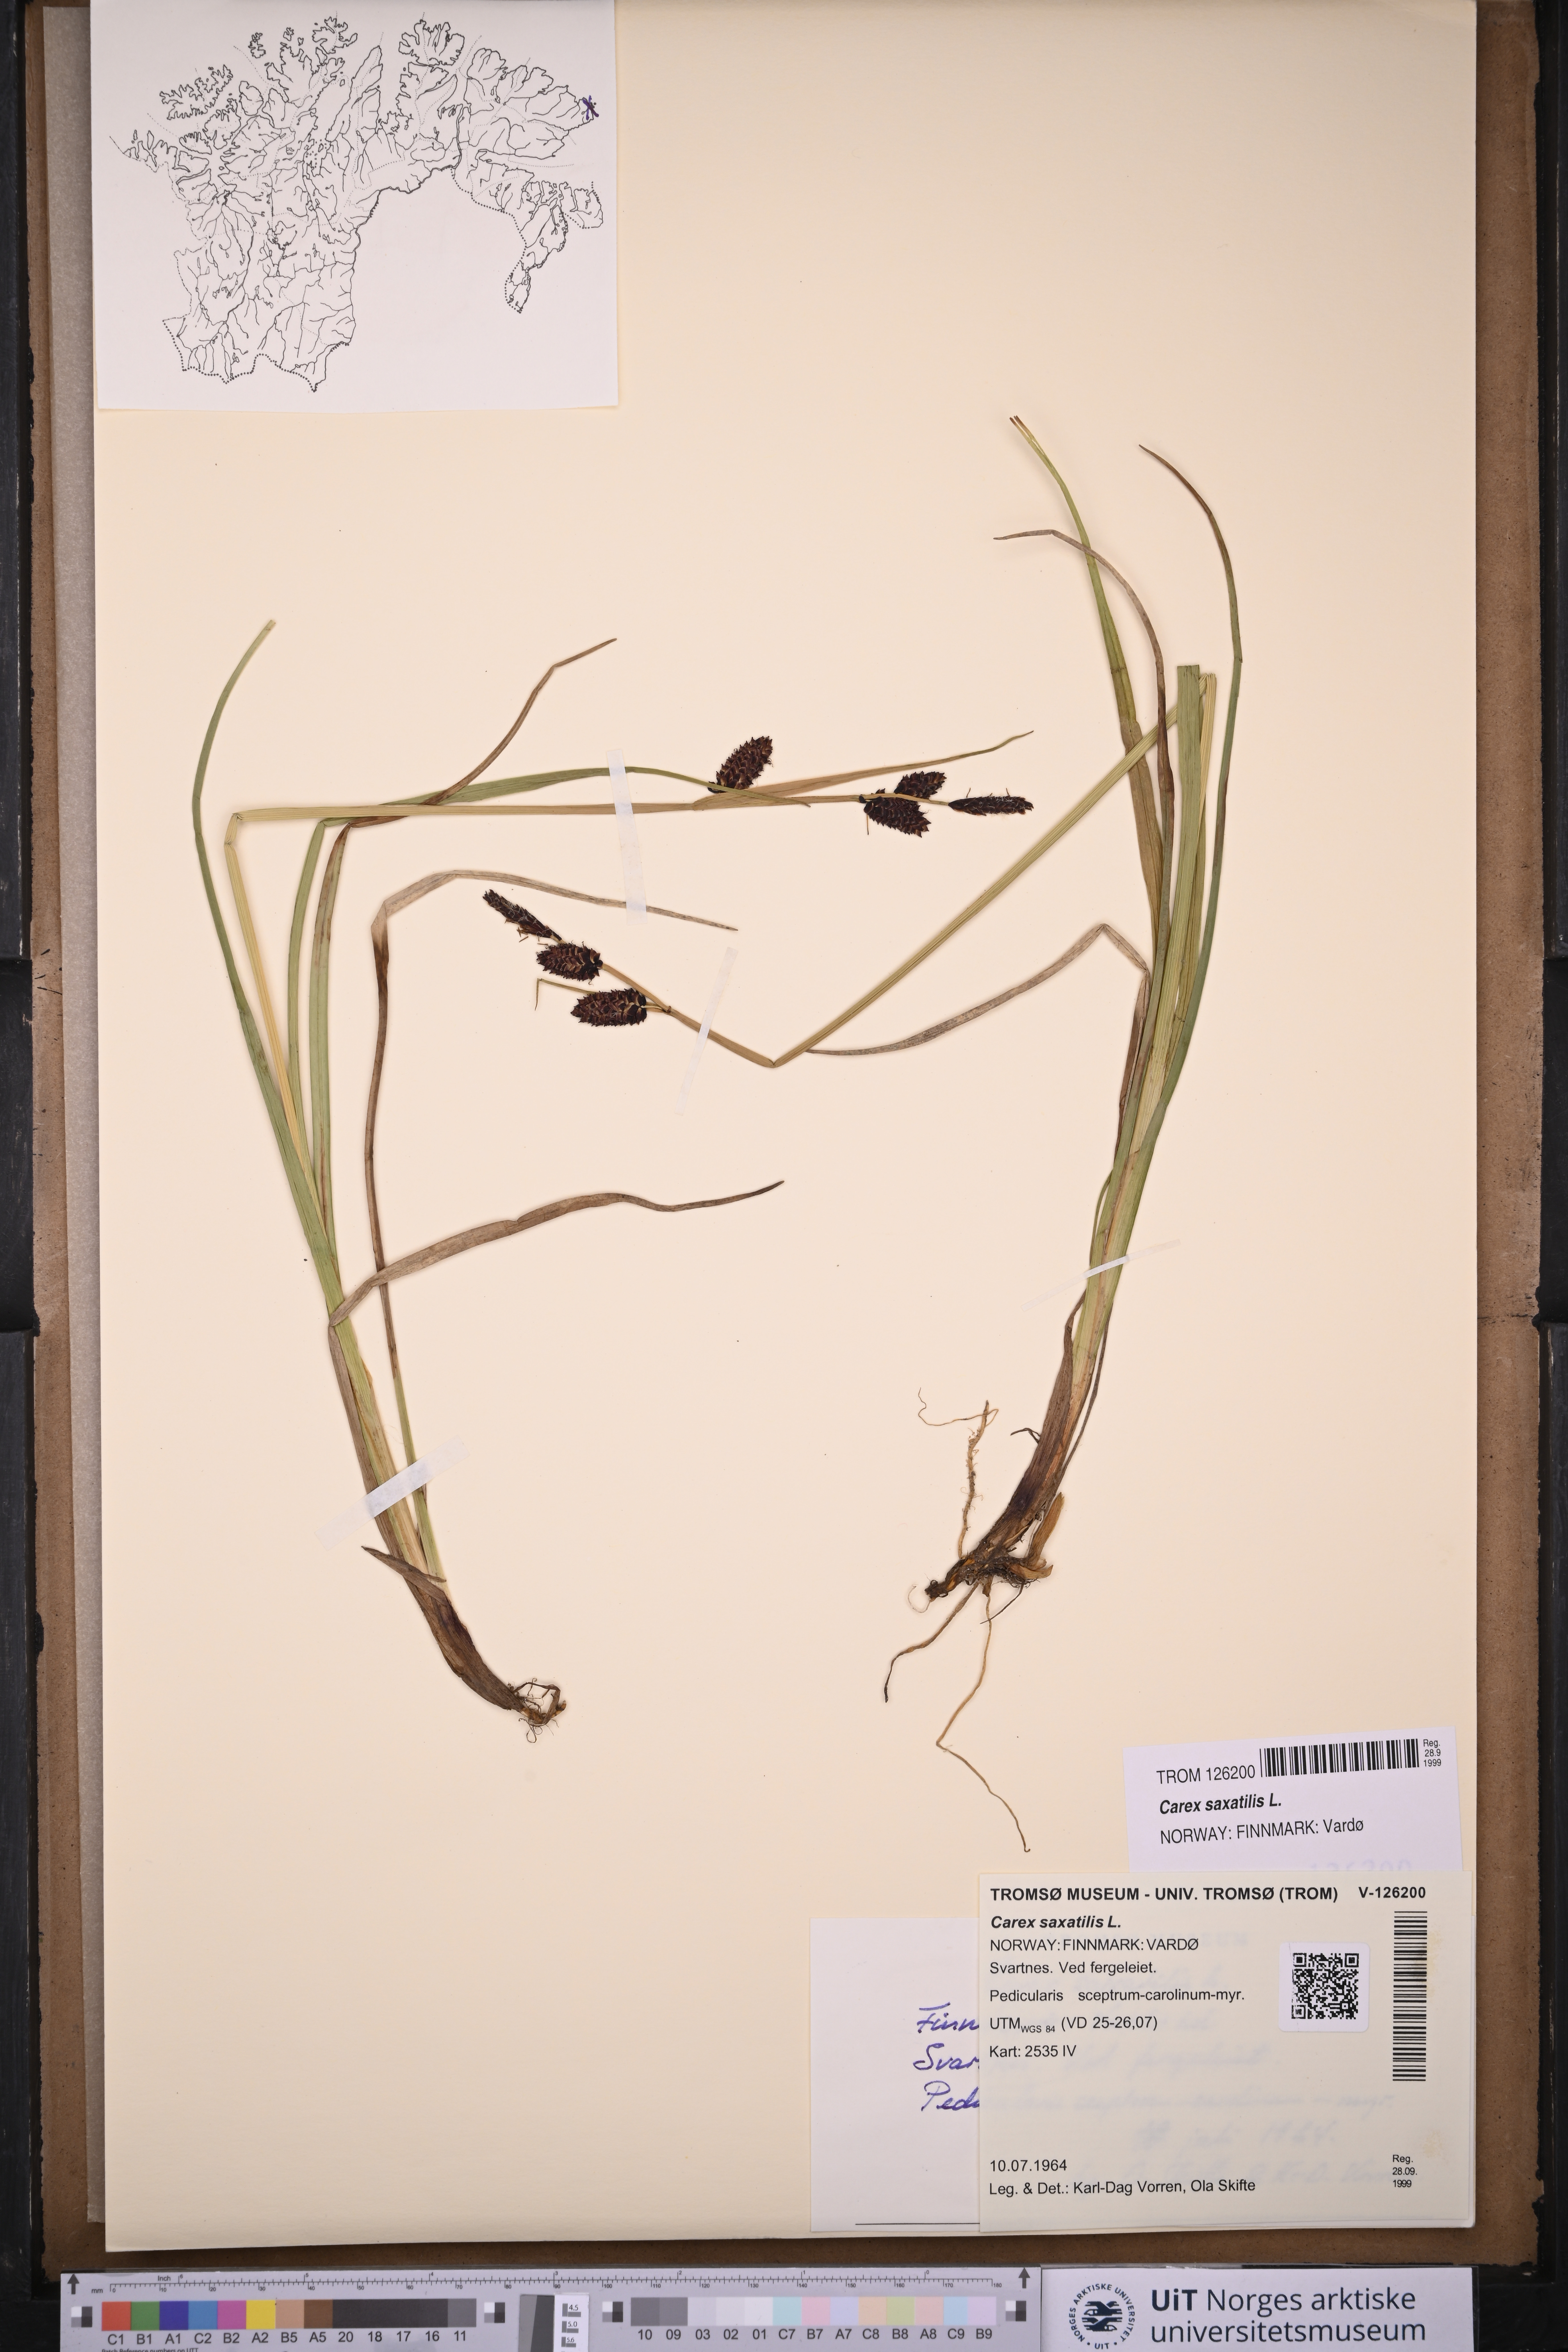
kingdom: Plantae
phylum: Tracheophyta
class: Liliopsida
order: Poales
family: Cyperaceae
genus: Carex
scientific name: Carex saxatilis
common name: Russet sedge
